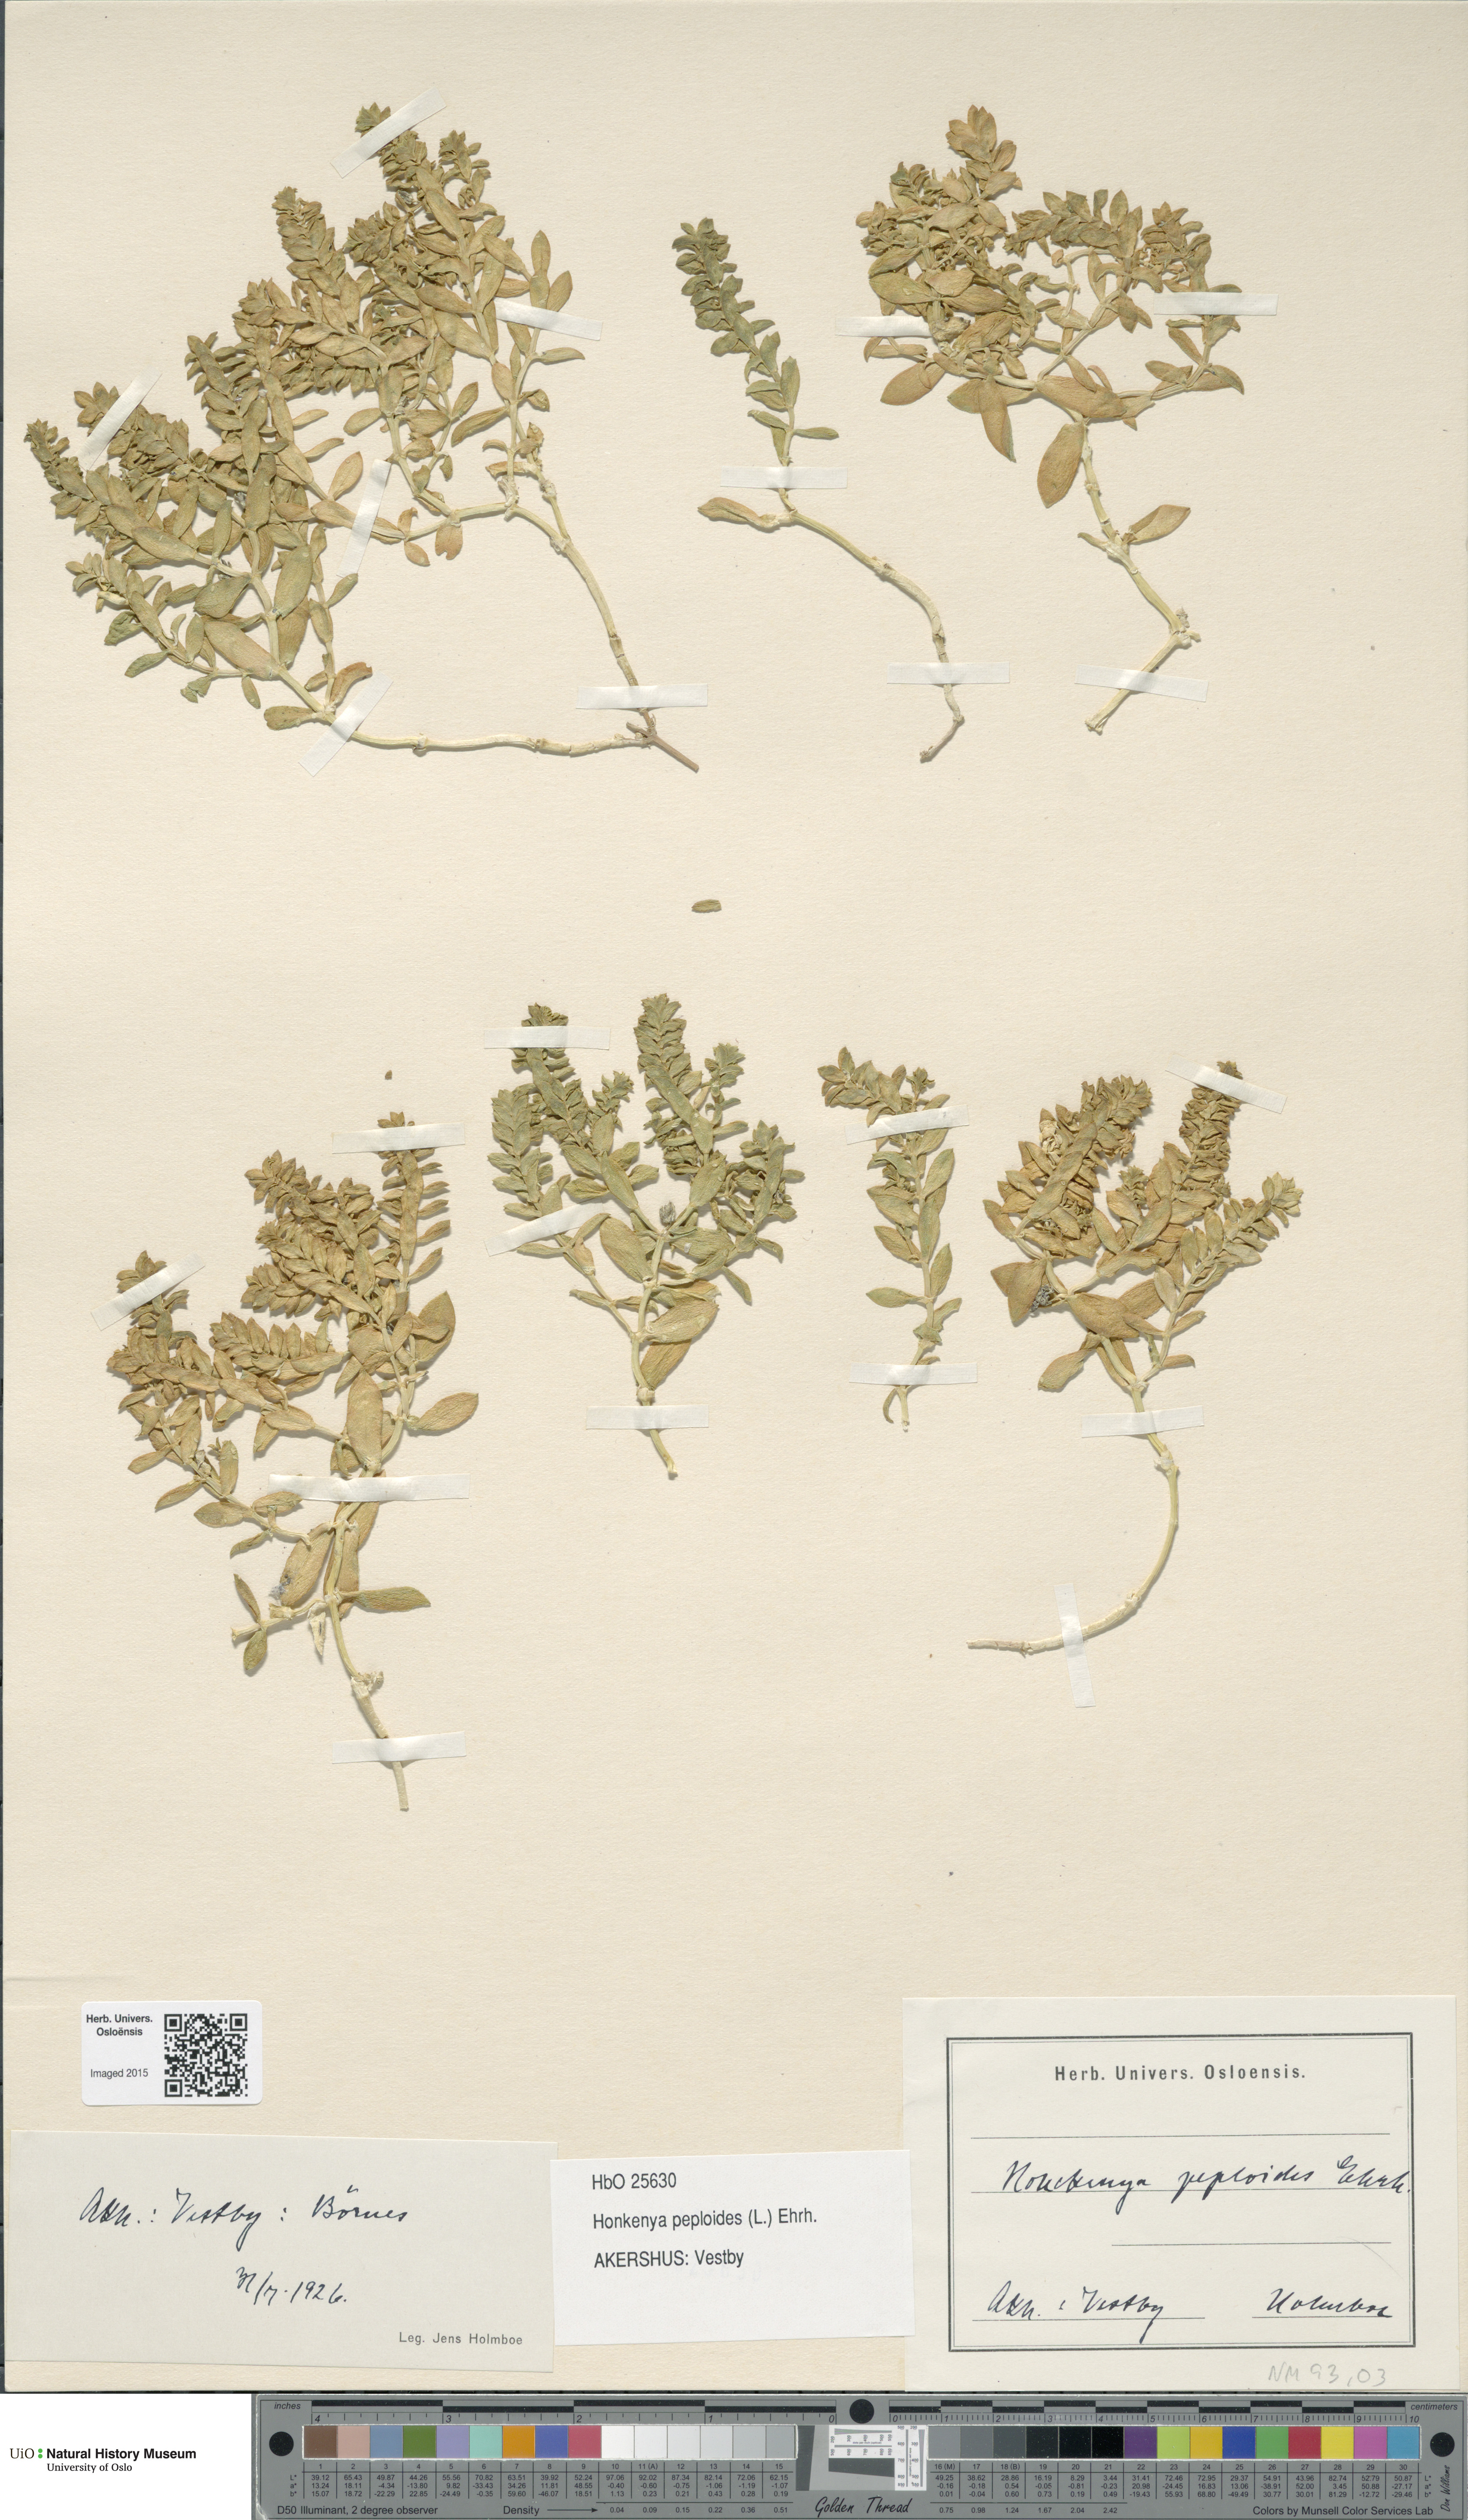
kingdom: Plantae
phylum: Tracheophyta
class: Magnoliopsida
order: Caryophyllales
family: Caryophyllaceae
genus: Honckenya
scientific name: Honckenya peploides
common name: Sea sandwort
